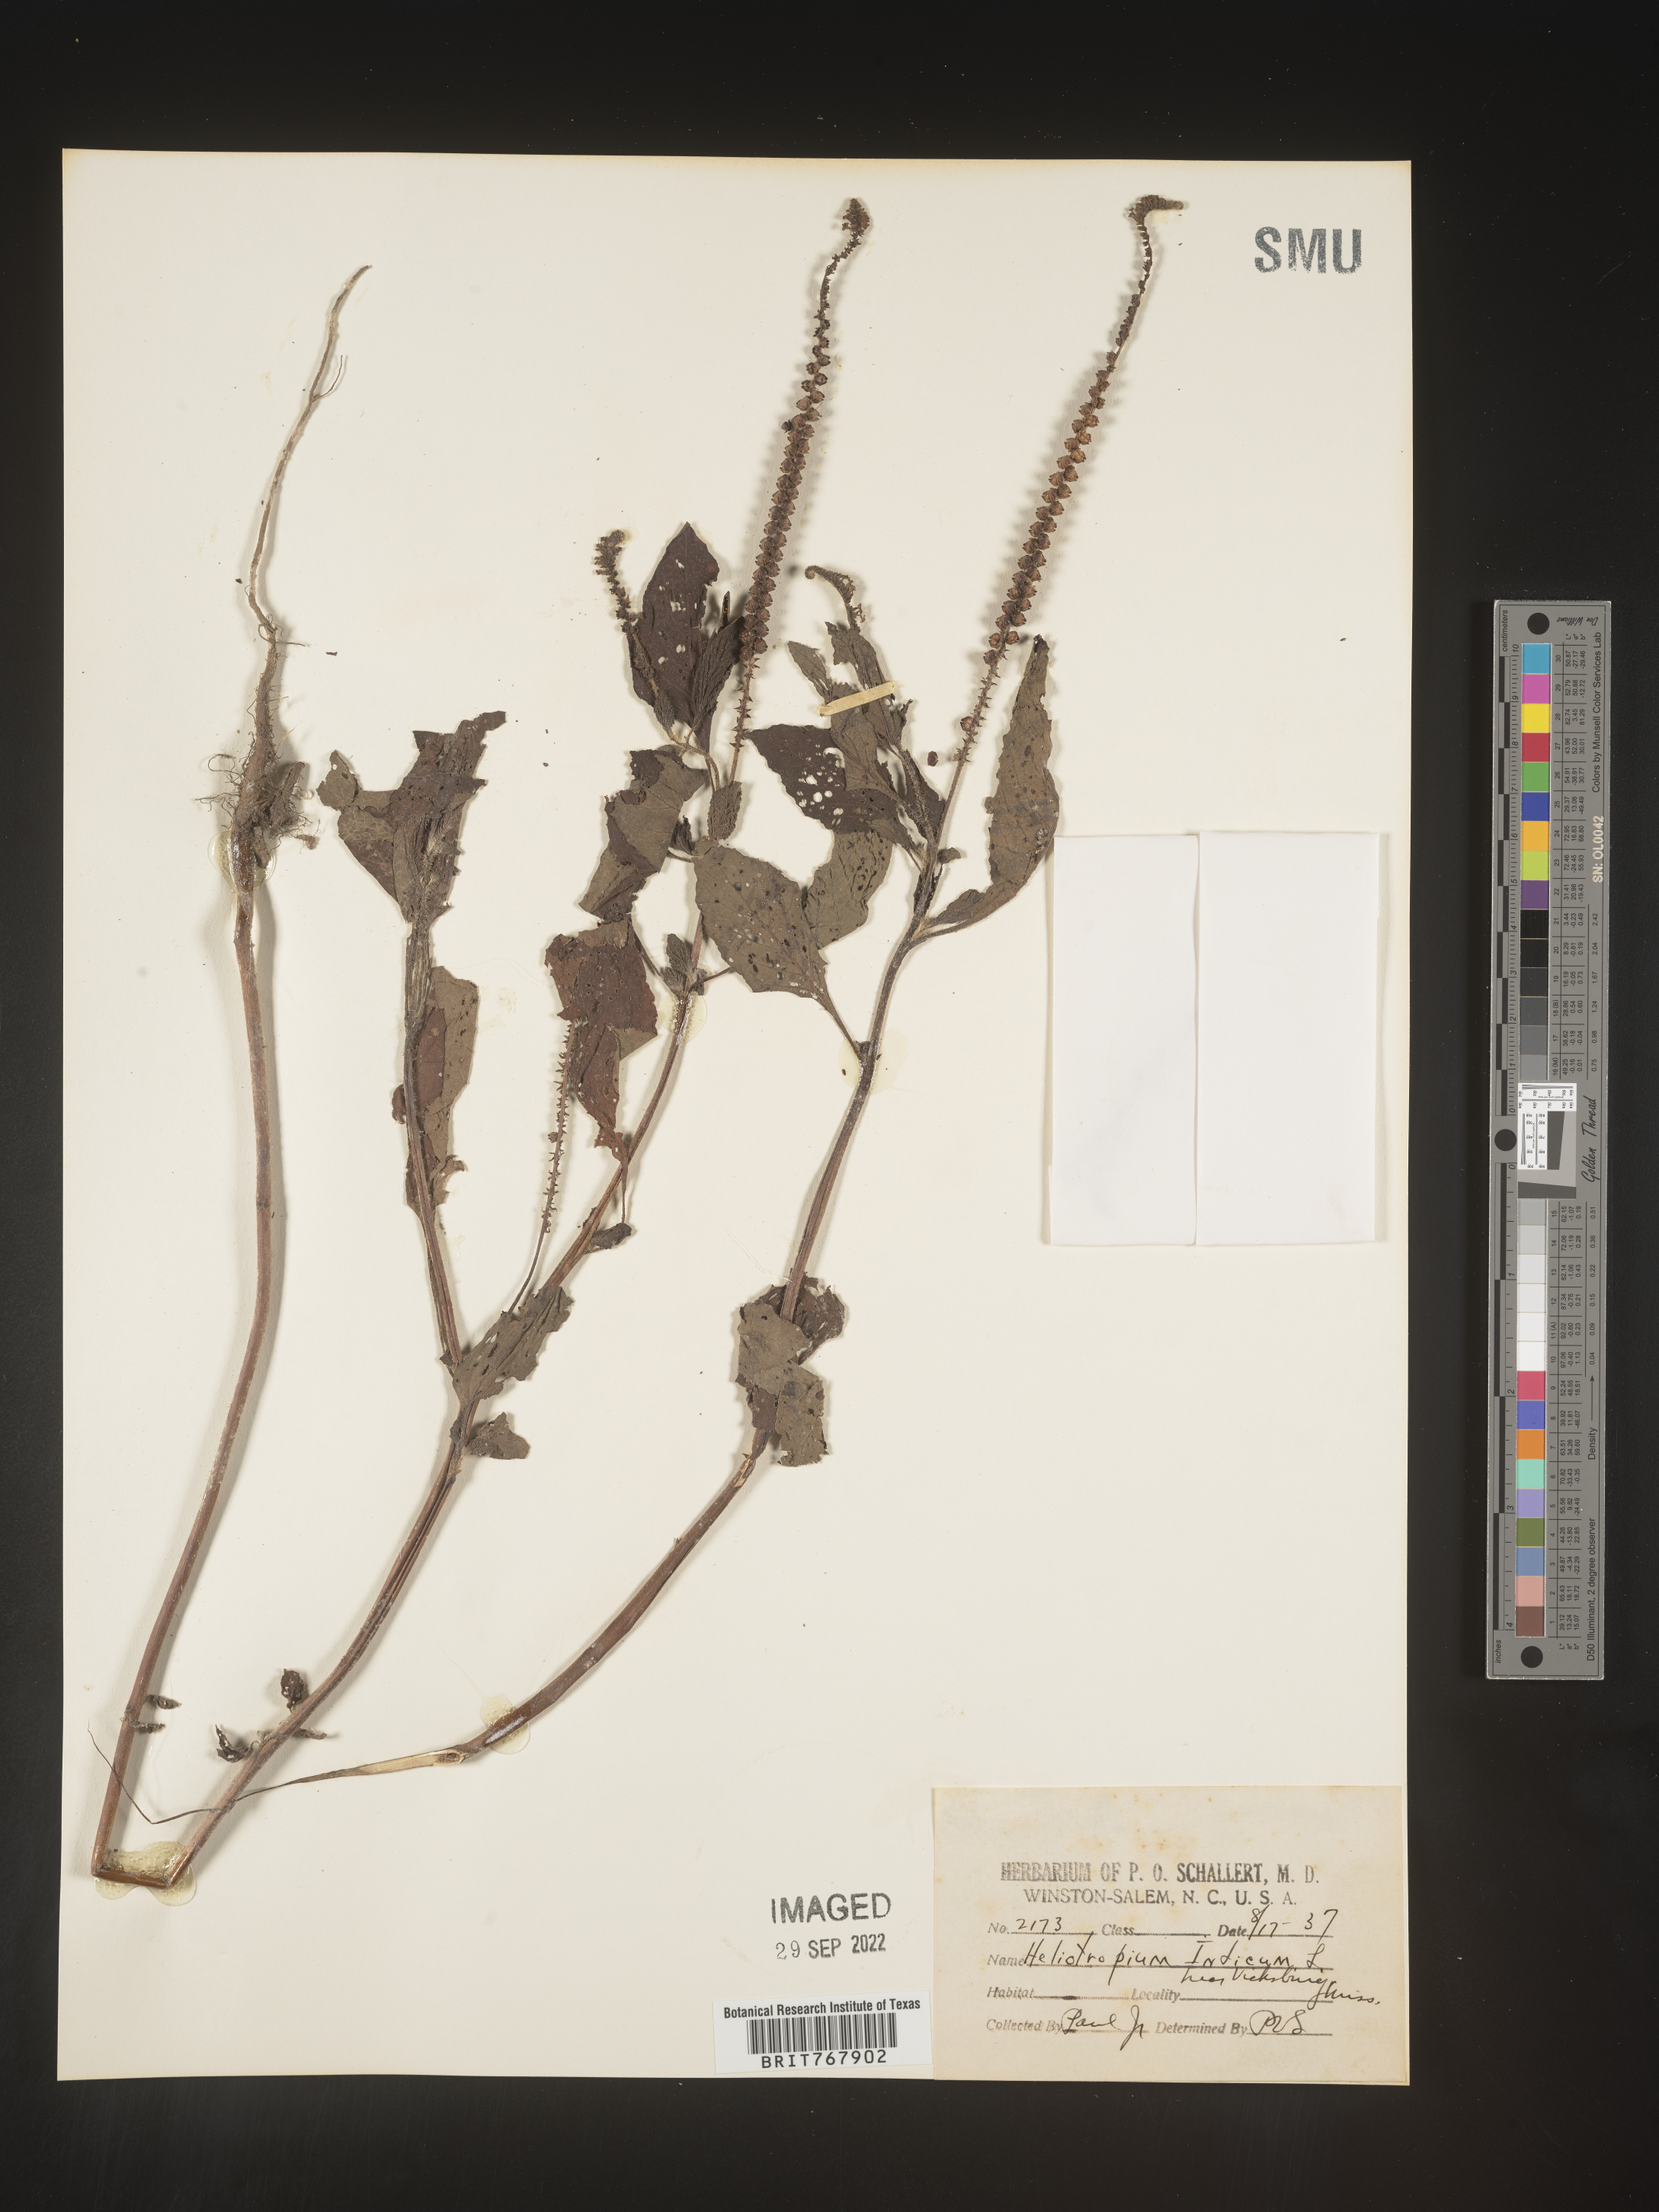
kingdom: Plantae
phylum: Tracheophyta
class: Magnoliopsida
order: Boraginales
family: Heliotropiaceae
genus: Heliotropium
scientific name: Heliotropium indicum
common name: Indian heliotrope
